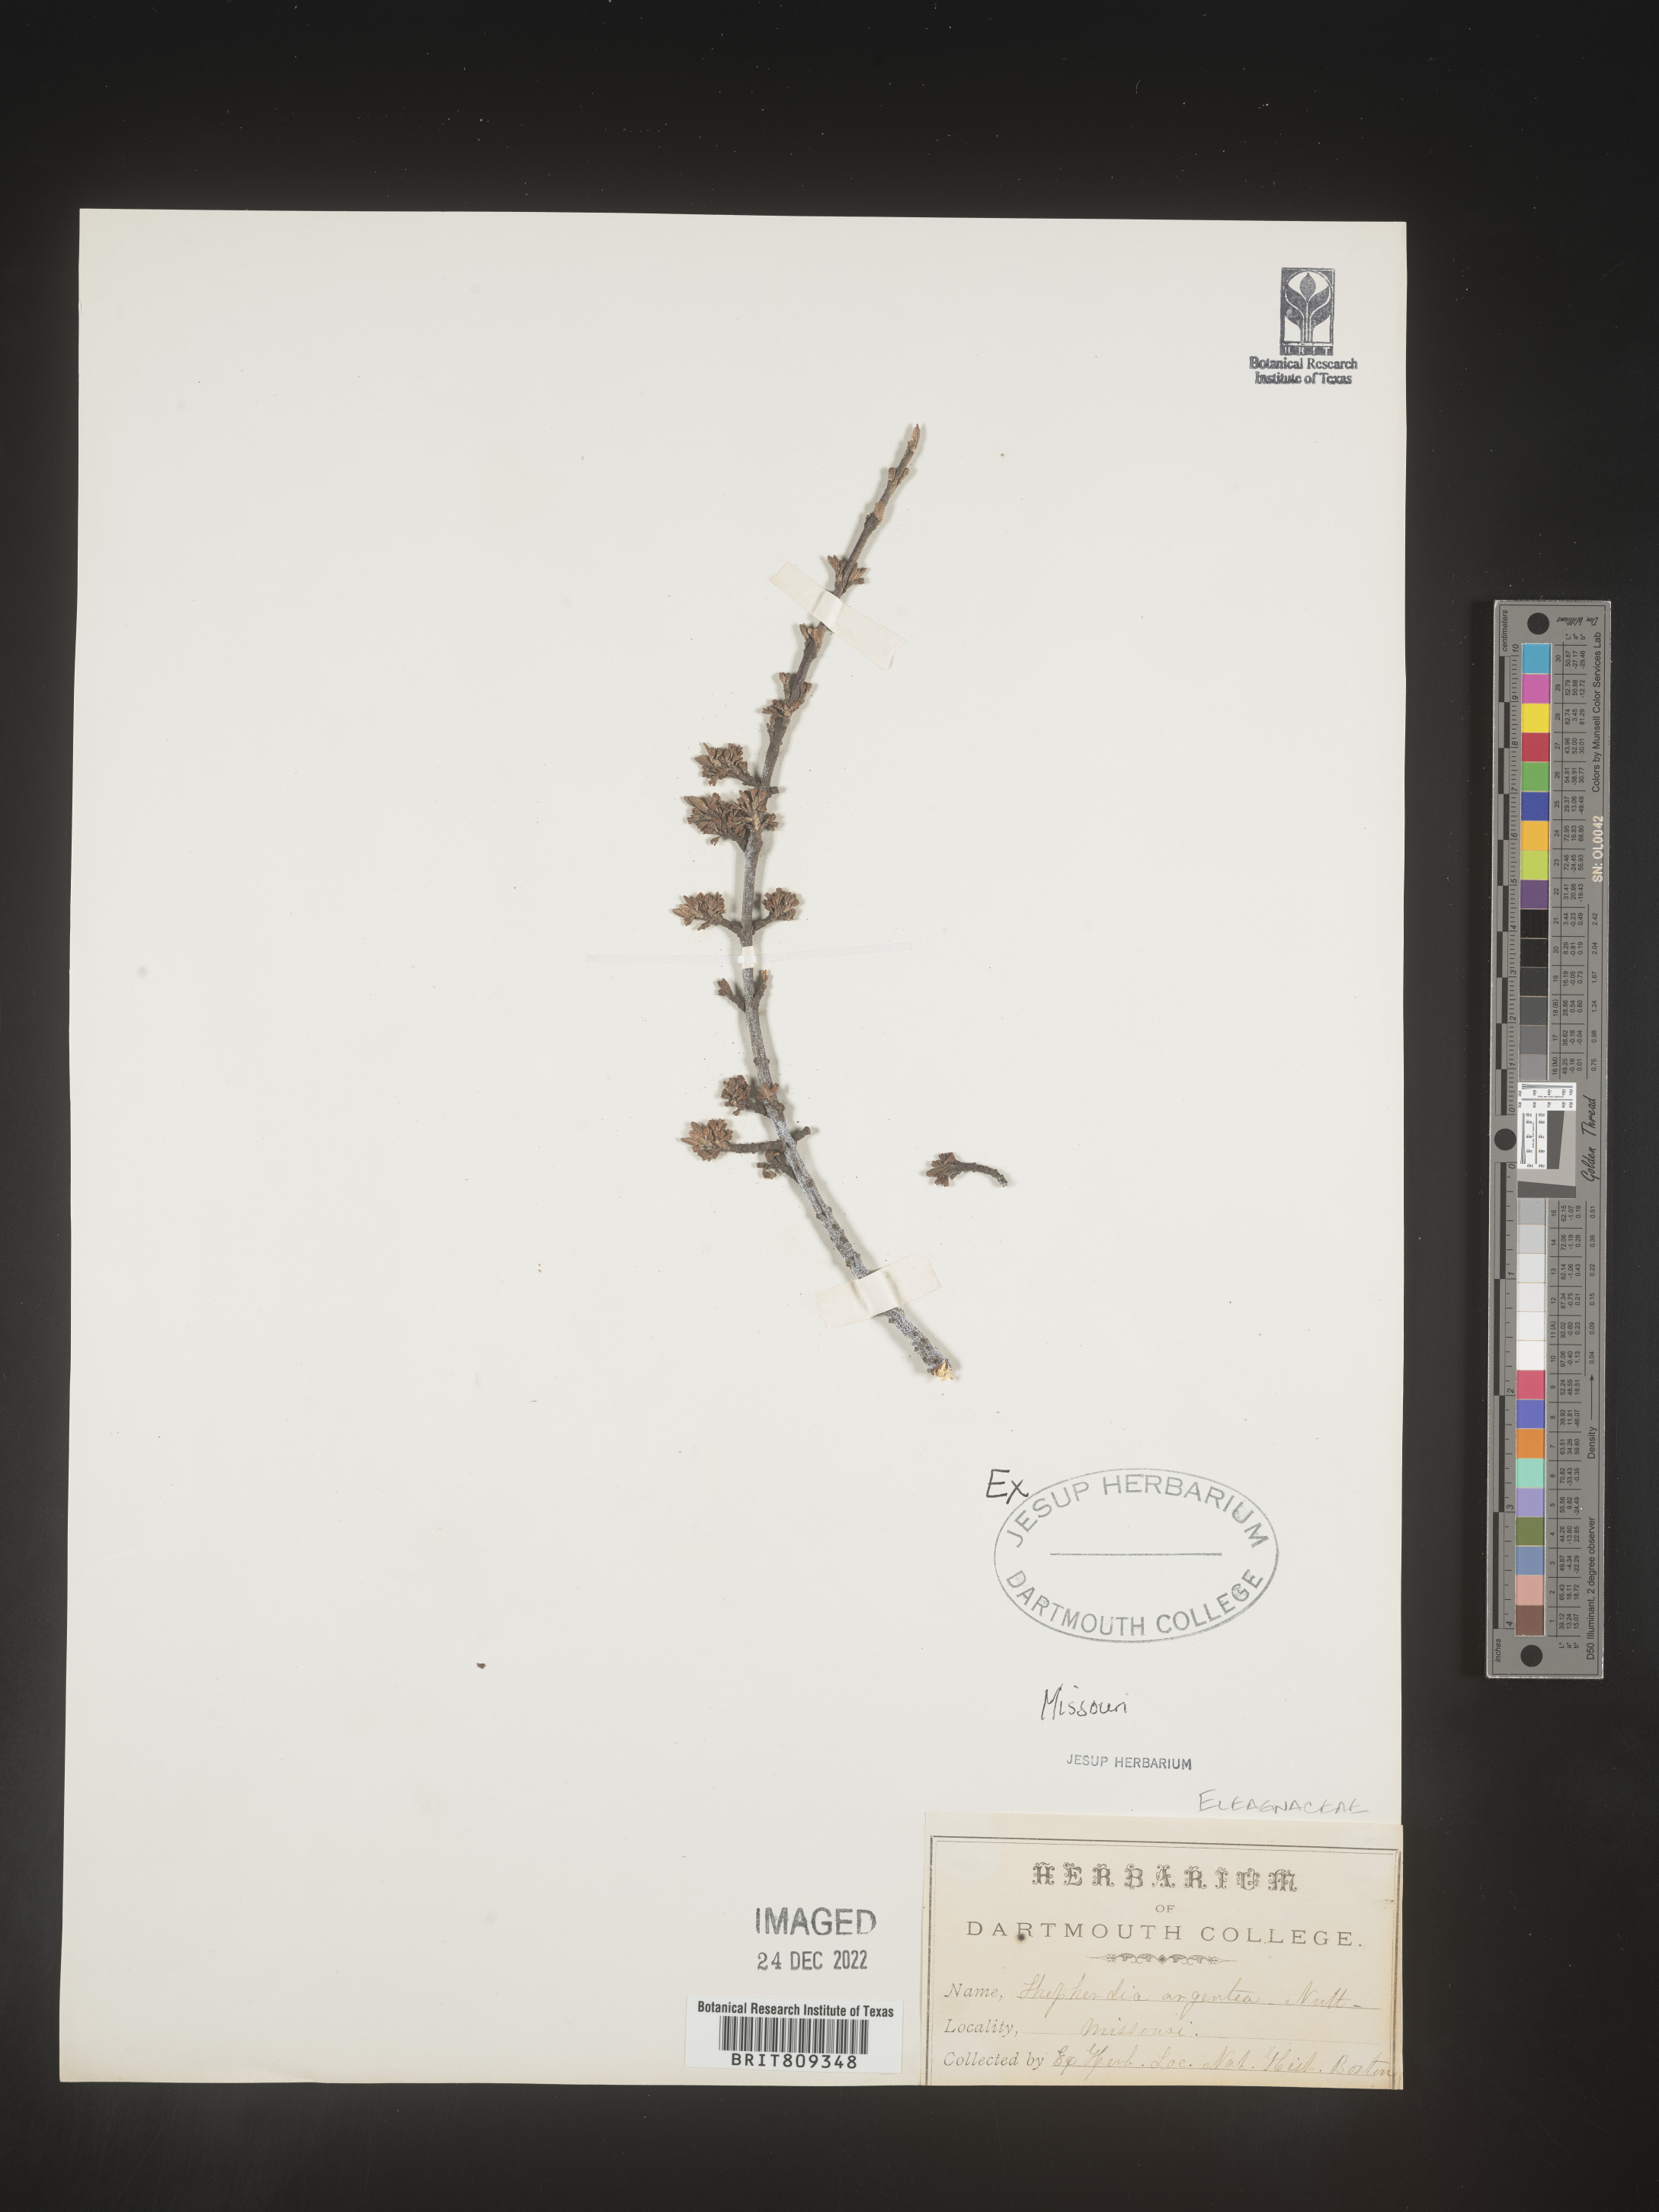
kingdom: Plantae
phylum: Tracheophyta
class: Magnoliopsida
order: Rosales
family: Elaeagnaceae
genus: Shepherdia
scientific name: Shepherdia argentea
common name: Silver buffaloberry
